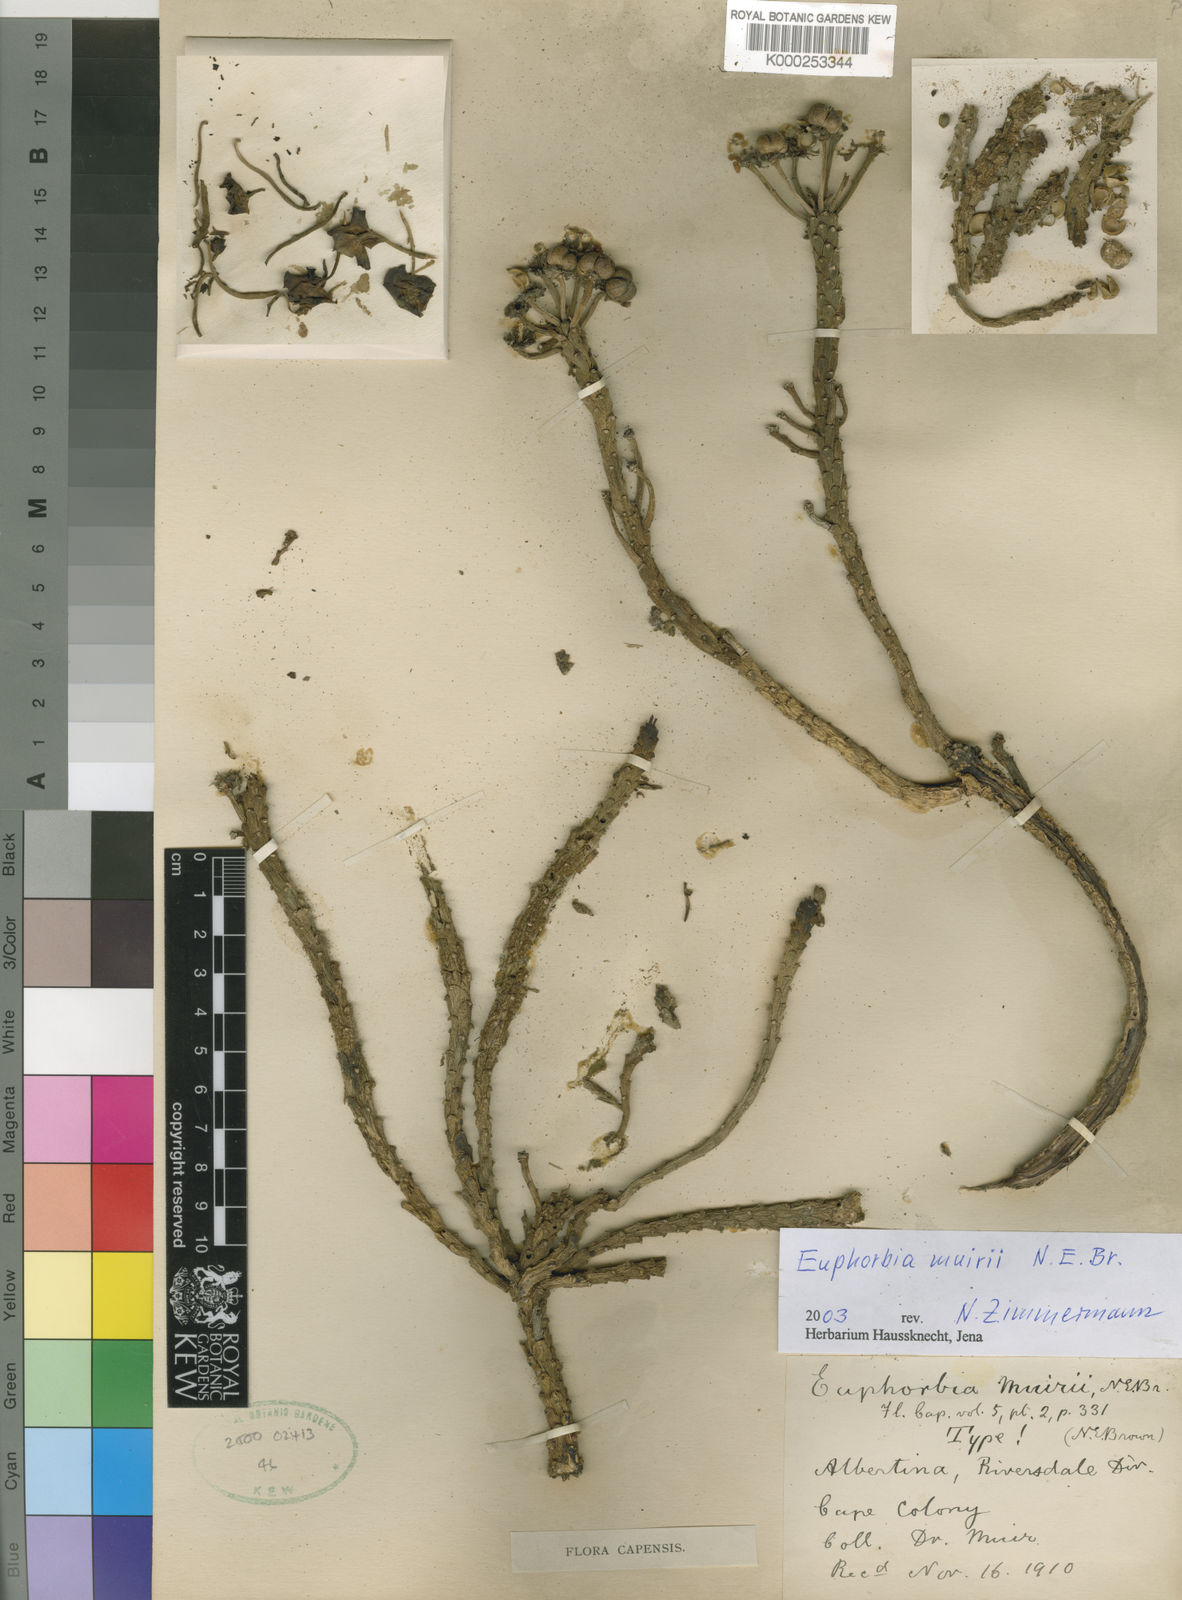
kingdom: Plantae
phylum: Tracheophyta
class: Magnoliopsida
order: Malpighiales
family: Euphorbiaceae
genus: Euphorbia
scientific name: Euphorbia caput-medusae
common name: Medusa's-head
